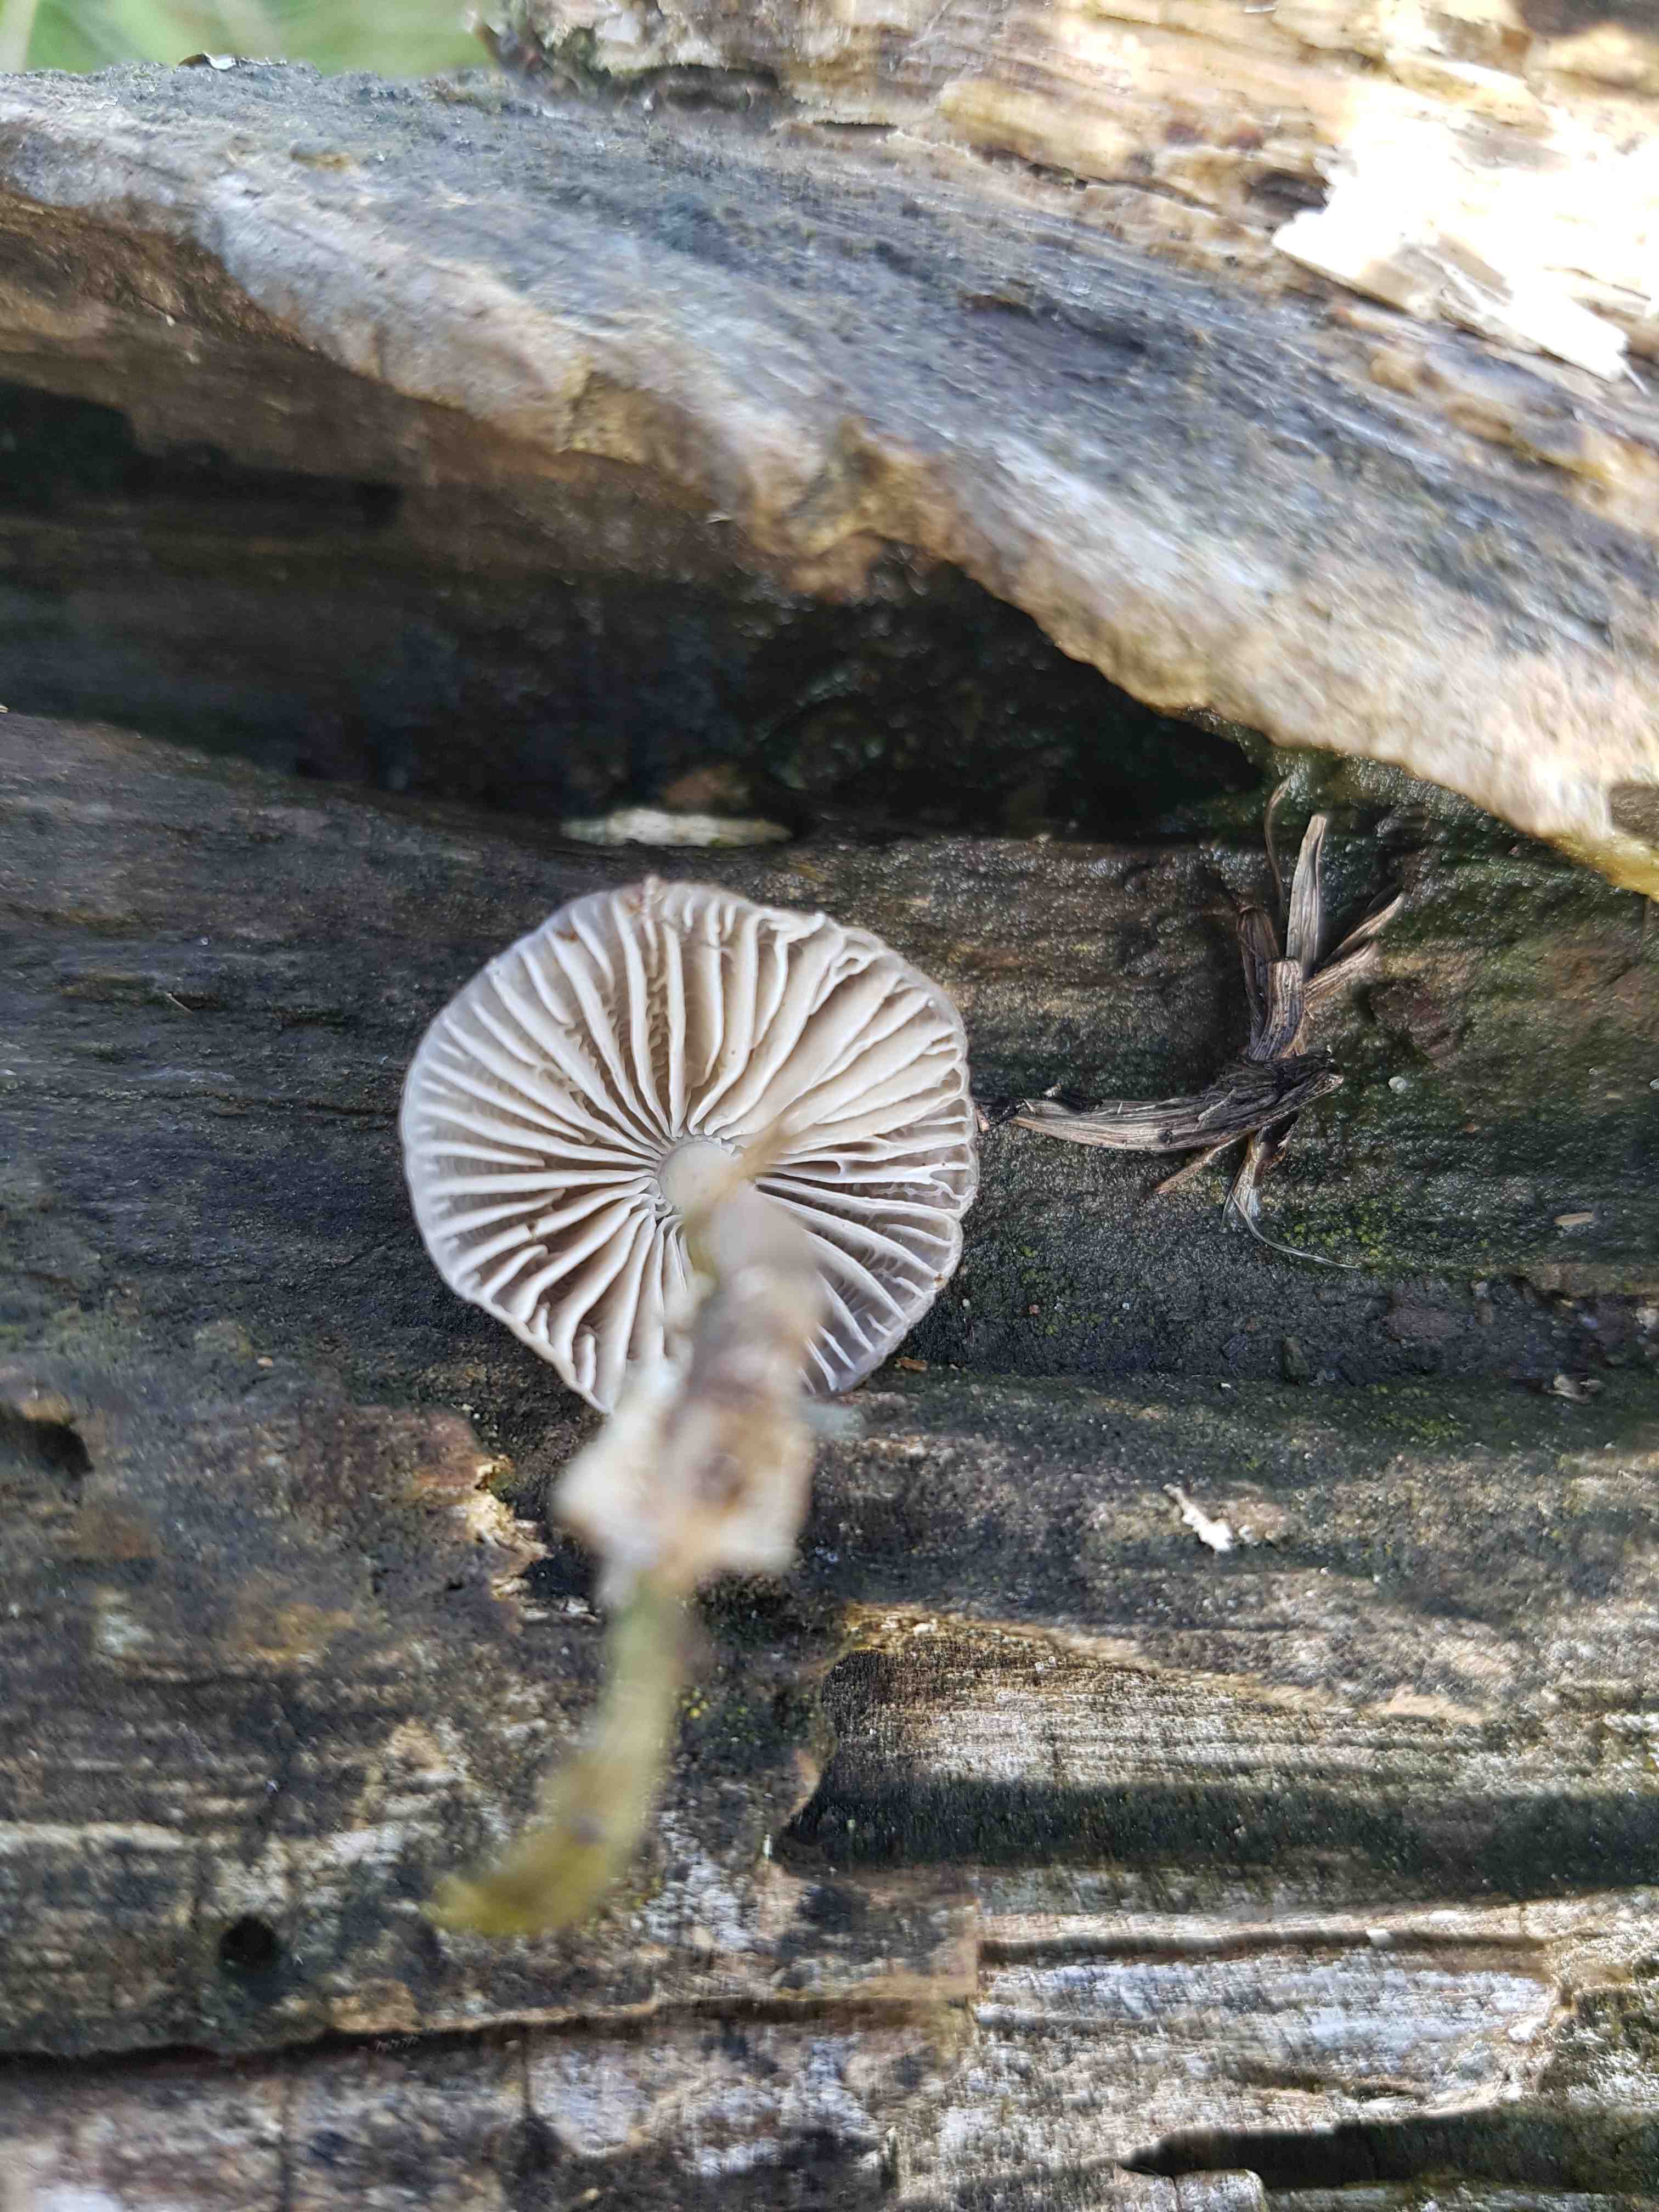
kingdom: Fungi
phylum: Basidiomycota
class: Agaricomycetes
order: Agaricales
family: Mycenaceae
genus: Mycena
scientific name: Mycena tintinnabulum
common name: vinter-huesvamp
